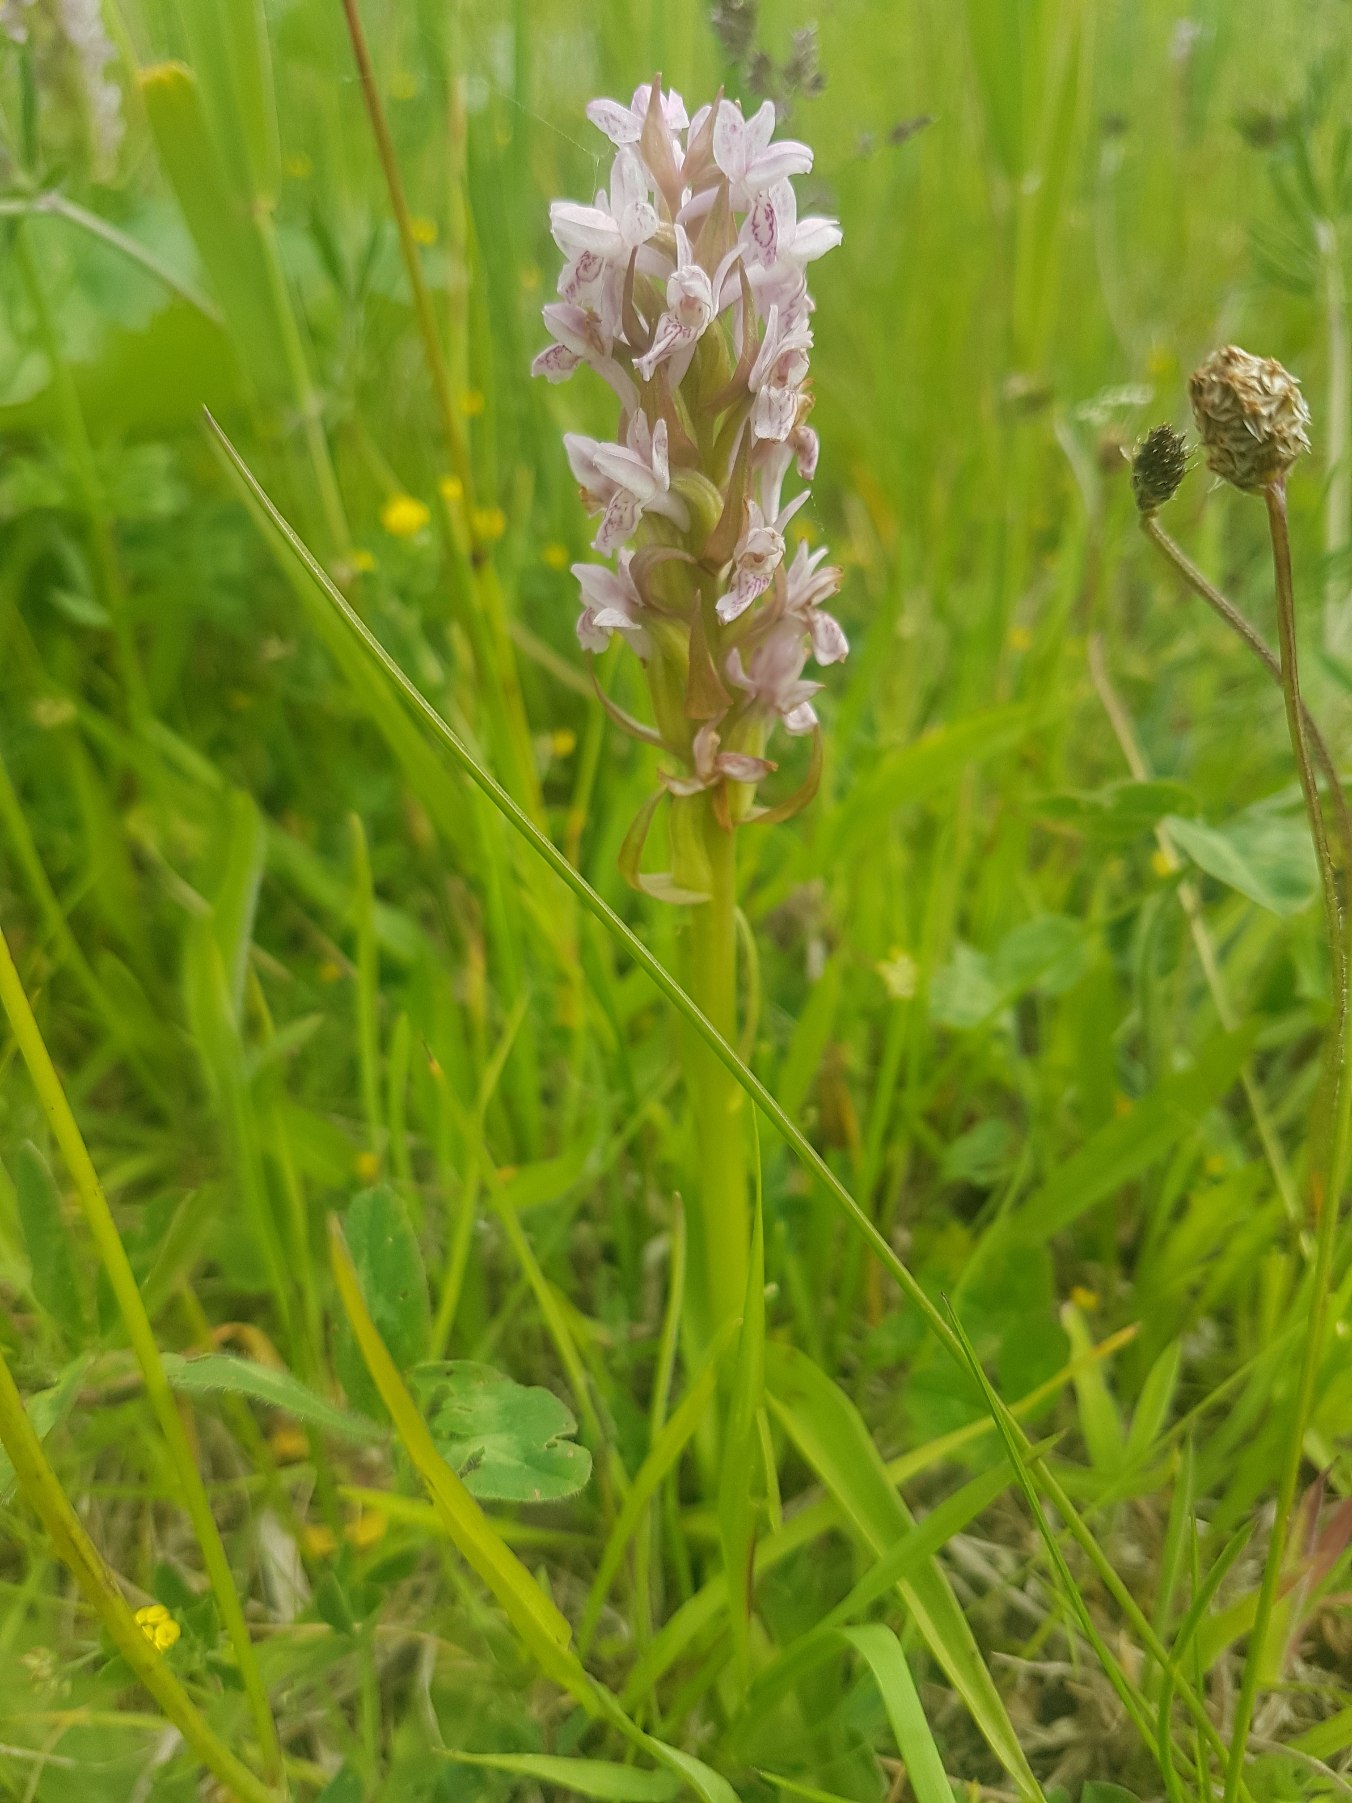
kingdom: Plantae
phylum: Tracheophyta
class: Liliopsida
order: Asparagales
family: Orchidaceae
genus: Dactylorhiza
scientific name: Dactylorhiza incarnata
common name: Kødfarvet gøgeurt
